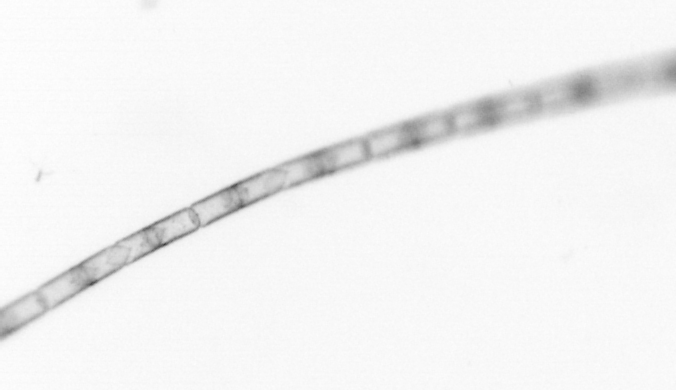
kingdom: Chromista
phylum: Ochrophyta
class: Bacillariophyceae
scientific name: Bacillariophyceae
